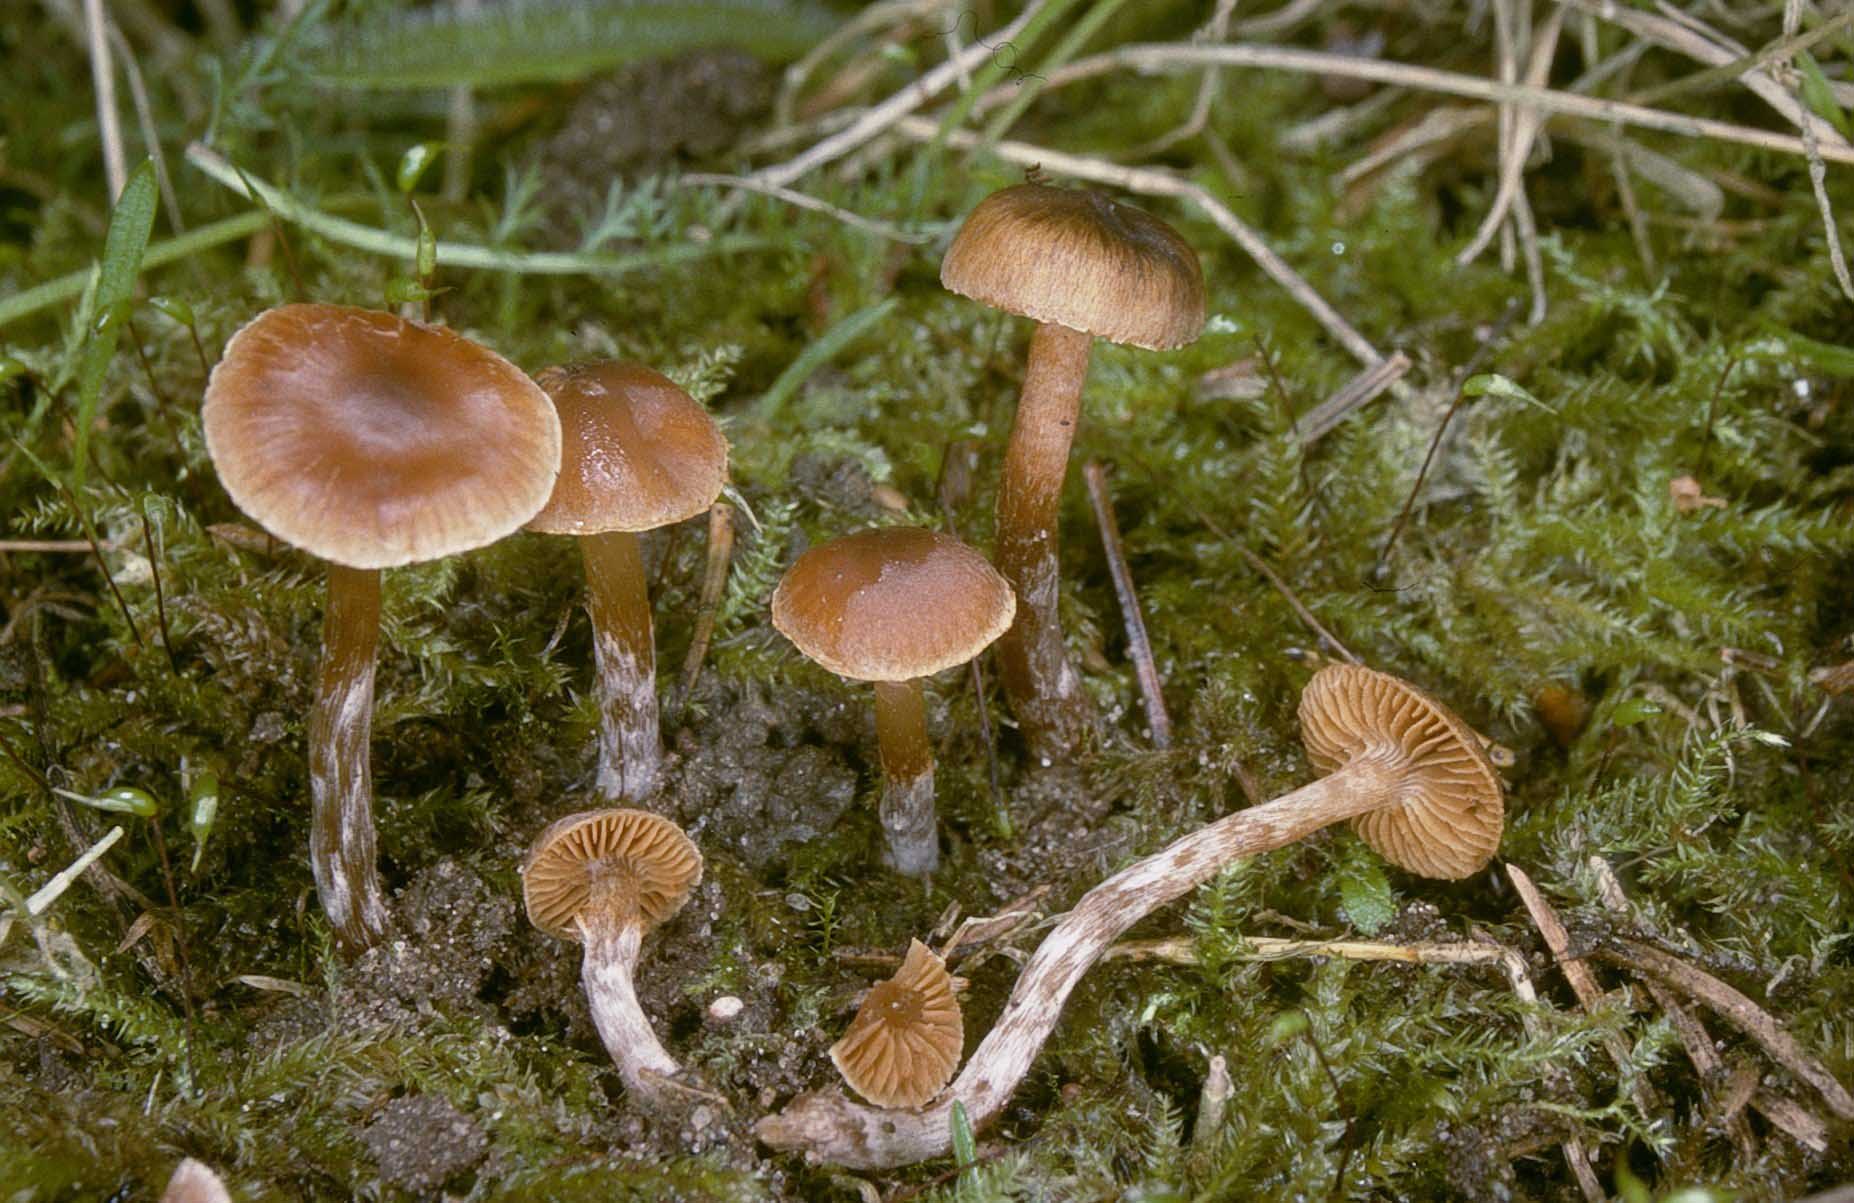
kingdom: Fungi
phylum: Basidiomycota
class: Agaricomycetes
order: Agaricales
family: Cortinariaceae
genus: Cortinarius
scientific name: Cortinarius
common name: hvidægget slørhat
